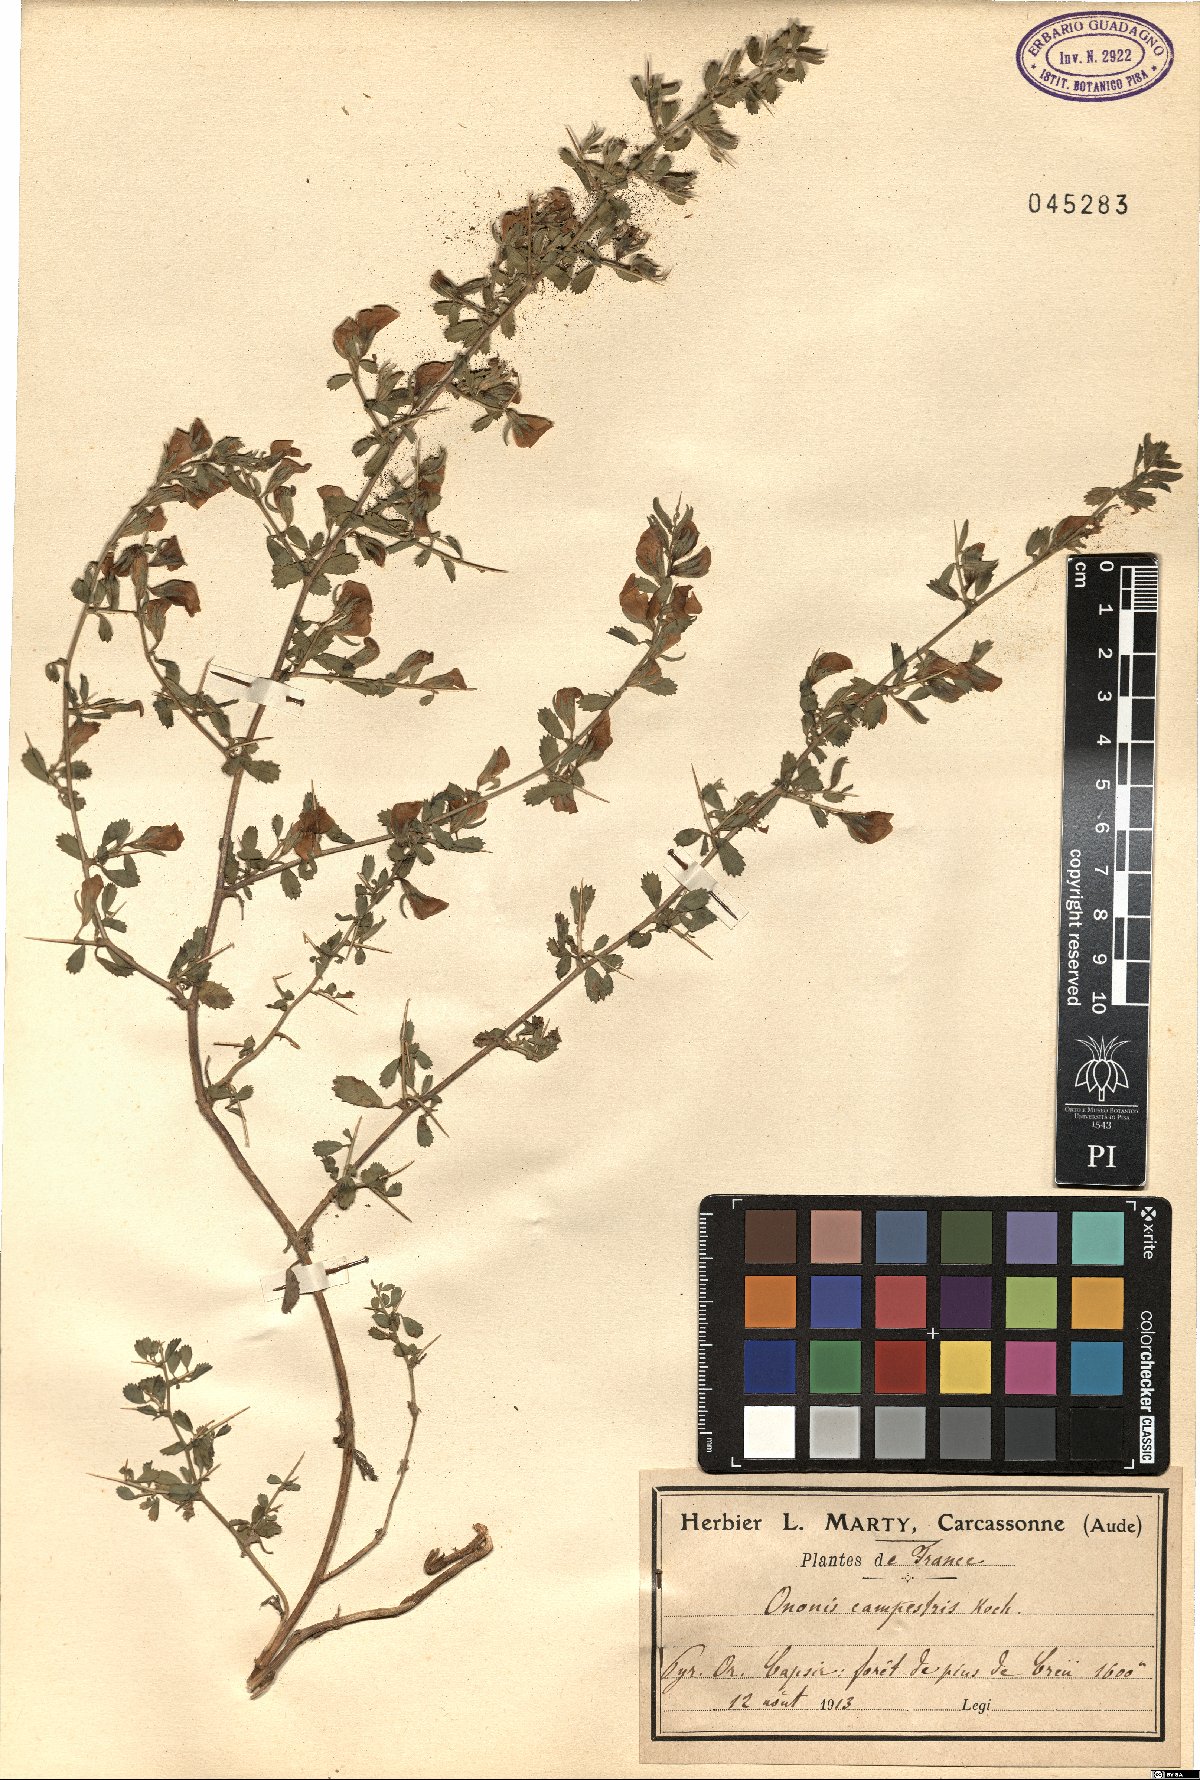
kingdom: Plantae
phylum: Tracheophyta
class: Magnoliopsida
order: Fabales
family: Fabaceae
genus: Ononis
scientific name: Ononis spinosa
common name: Spiny restharrow
